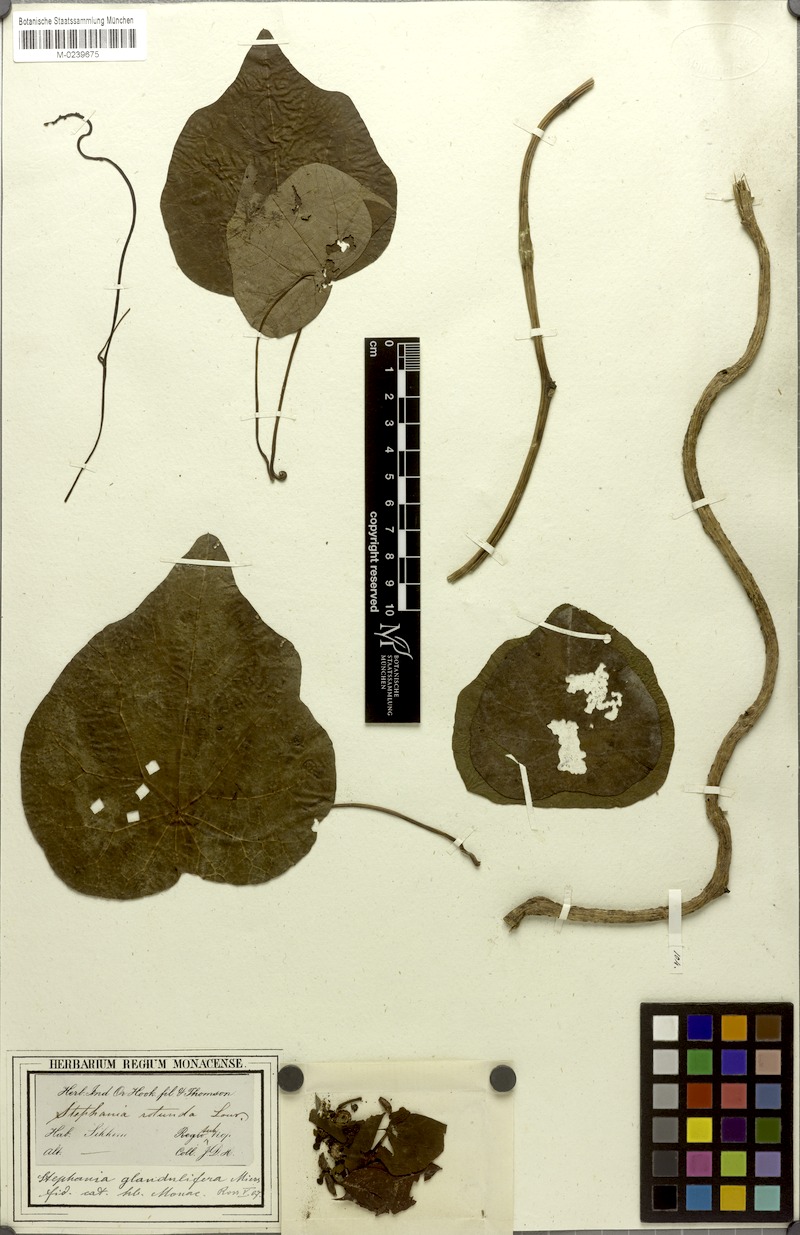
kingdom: Plantae
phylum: Tracheophyta
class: Magnoliopsida
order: Ranunculales
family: Menispermaceae
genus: Stephania
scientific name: Stephania glandulifera
